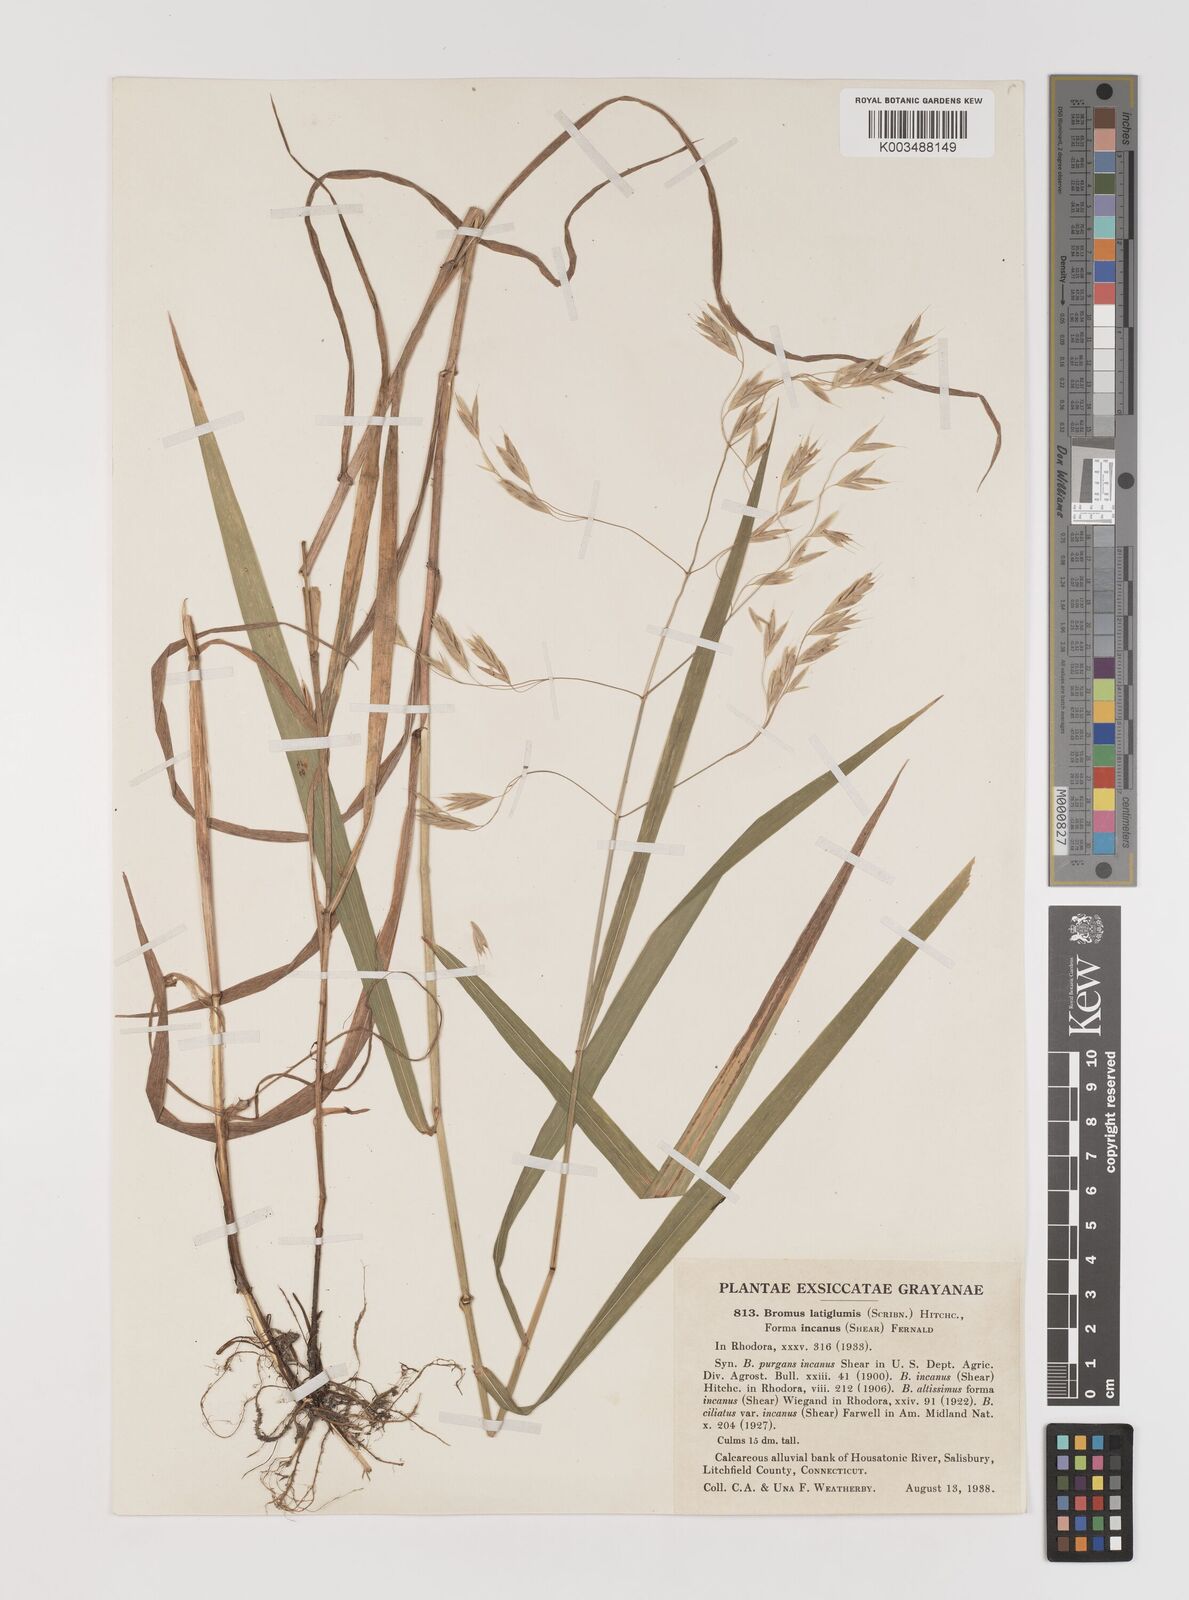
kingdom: Plantae
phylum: Tracheophyta
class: Liliopsida
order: Poales
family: Poaceae
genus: Bromus
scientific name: Bromus latiglumis
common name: Broad-glumed brome
